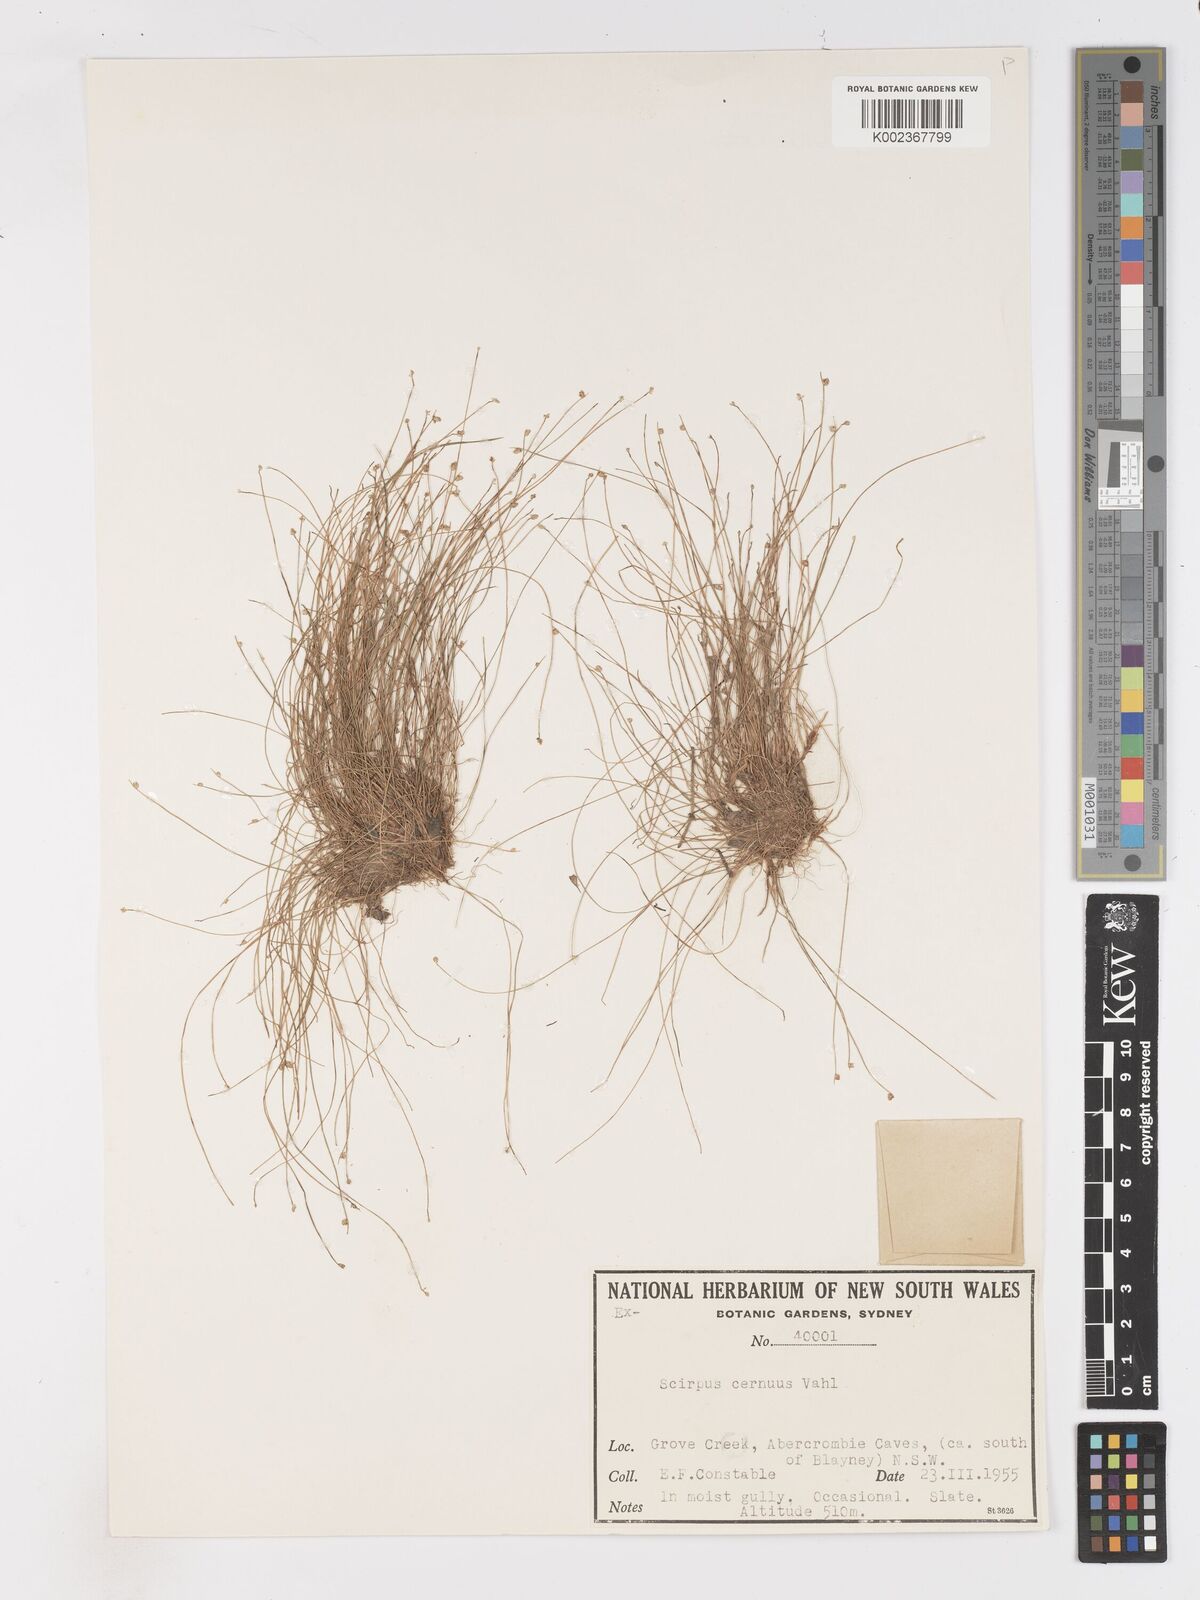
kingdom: Plantae
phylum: Tracheophyta
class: Liliopsida
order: Poales
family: Cyperaceae
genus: Isolepis
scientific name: Isolepis cernua
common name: Slender club-rush
